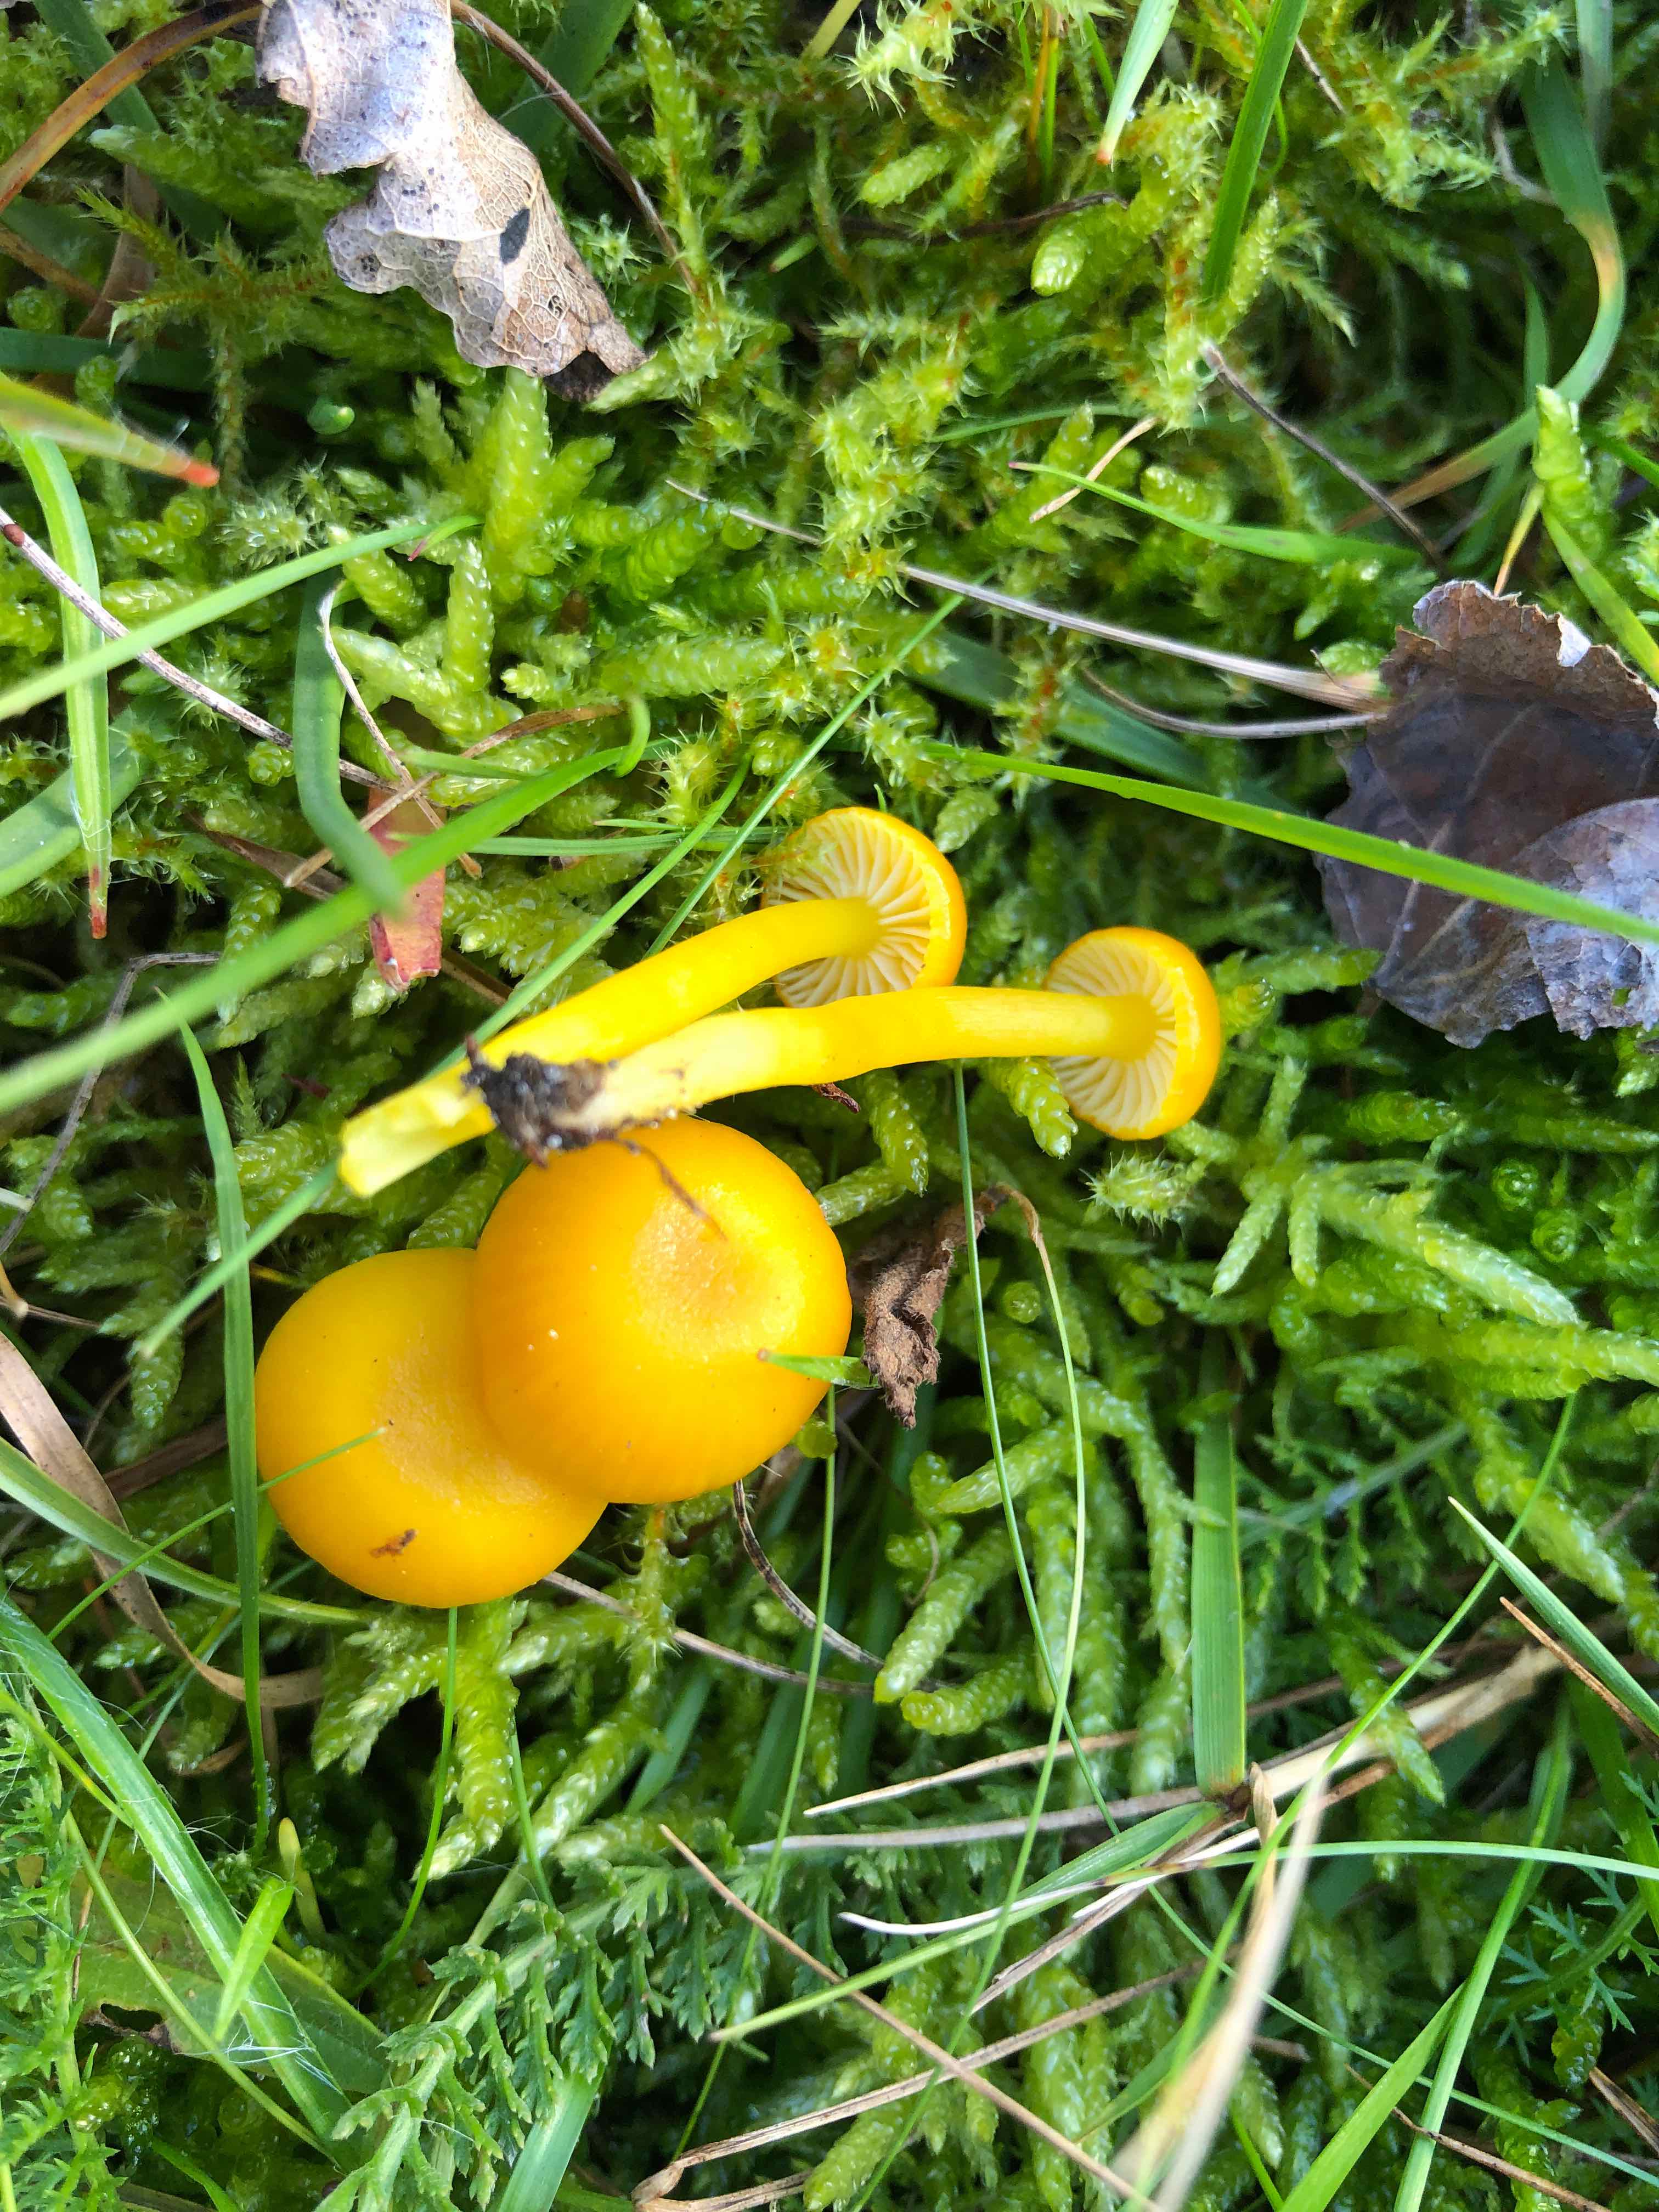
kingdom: Fungi
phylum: Basidiomycota
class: Agaricomycetes
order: Agaricales
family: Hygrophoraceae
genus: Hygrocybe
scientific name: Hygrocybe ceracea
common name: voksgul vokshat
